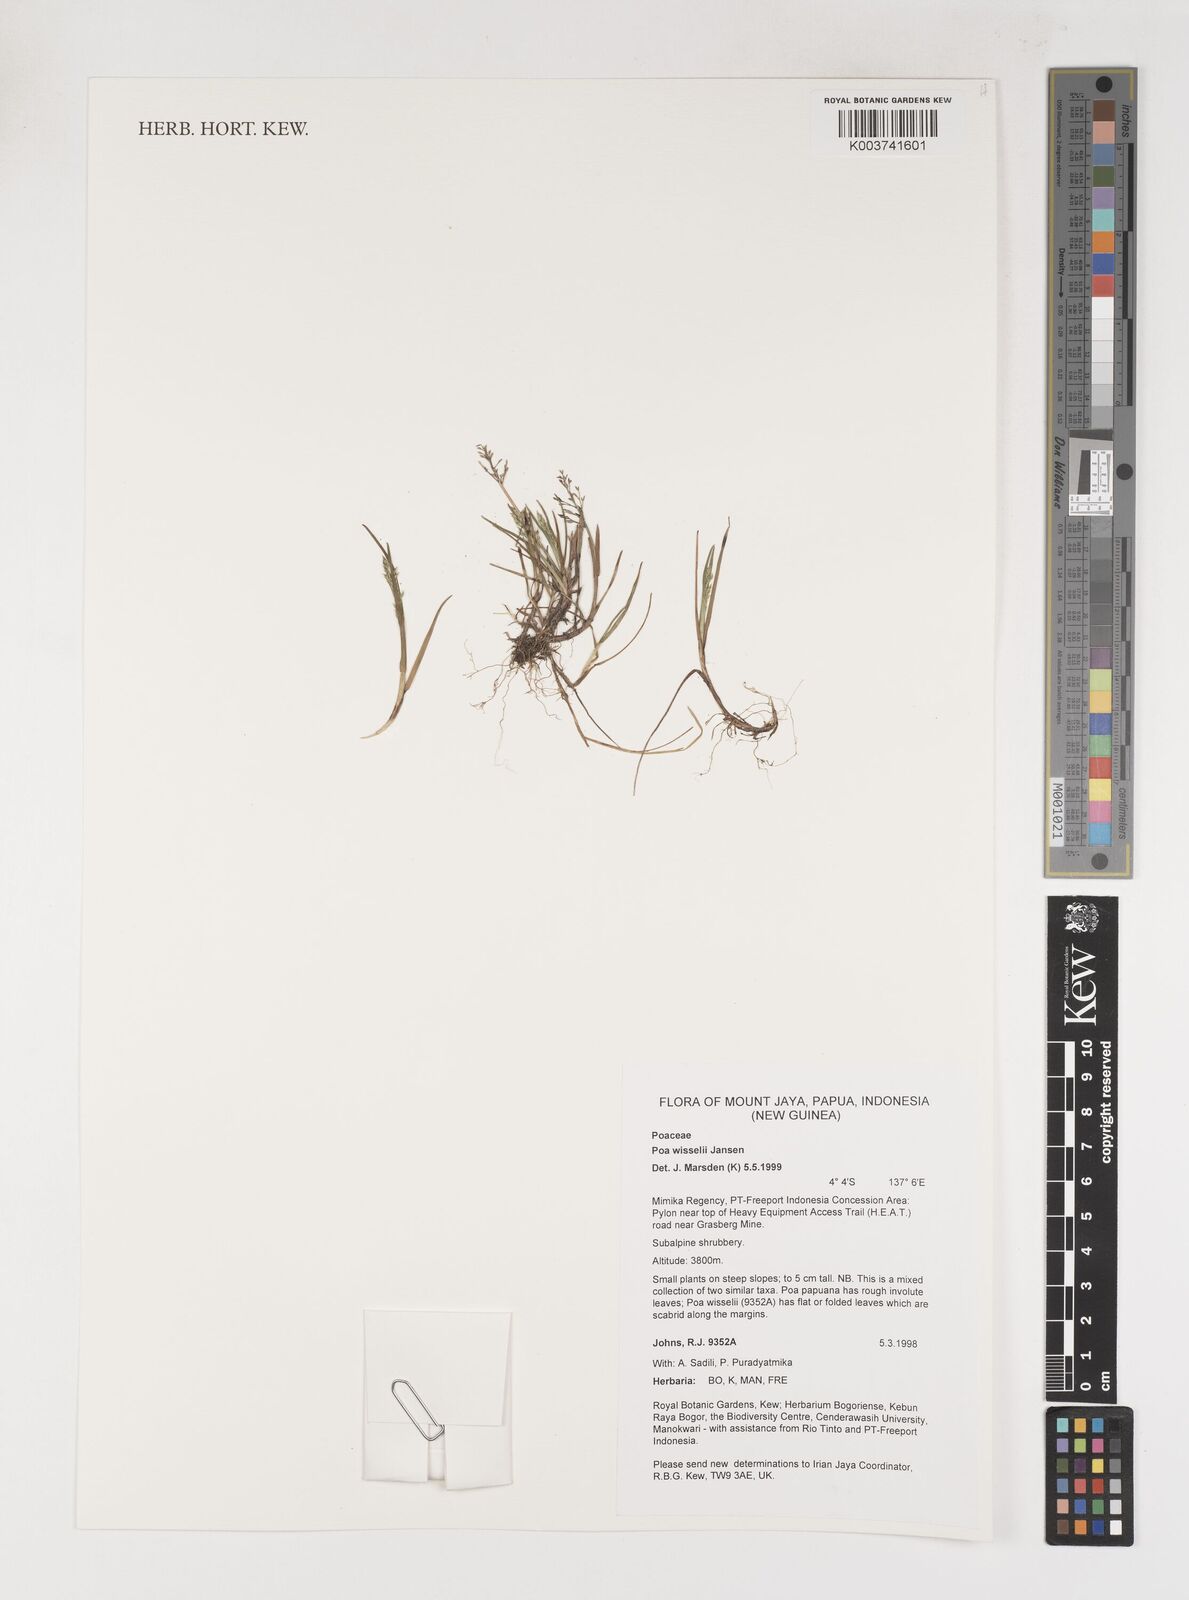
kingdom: Plantae
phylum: Tracheophyta
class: Liliopsida
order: Poales
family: Poaceae
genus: Poa
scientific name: Poa wisselii
